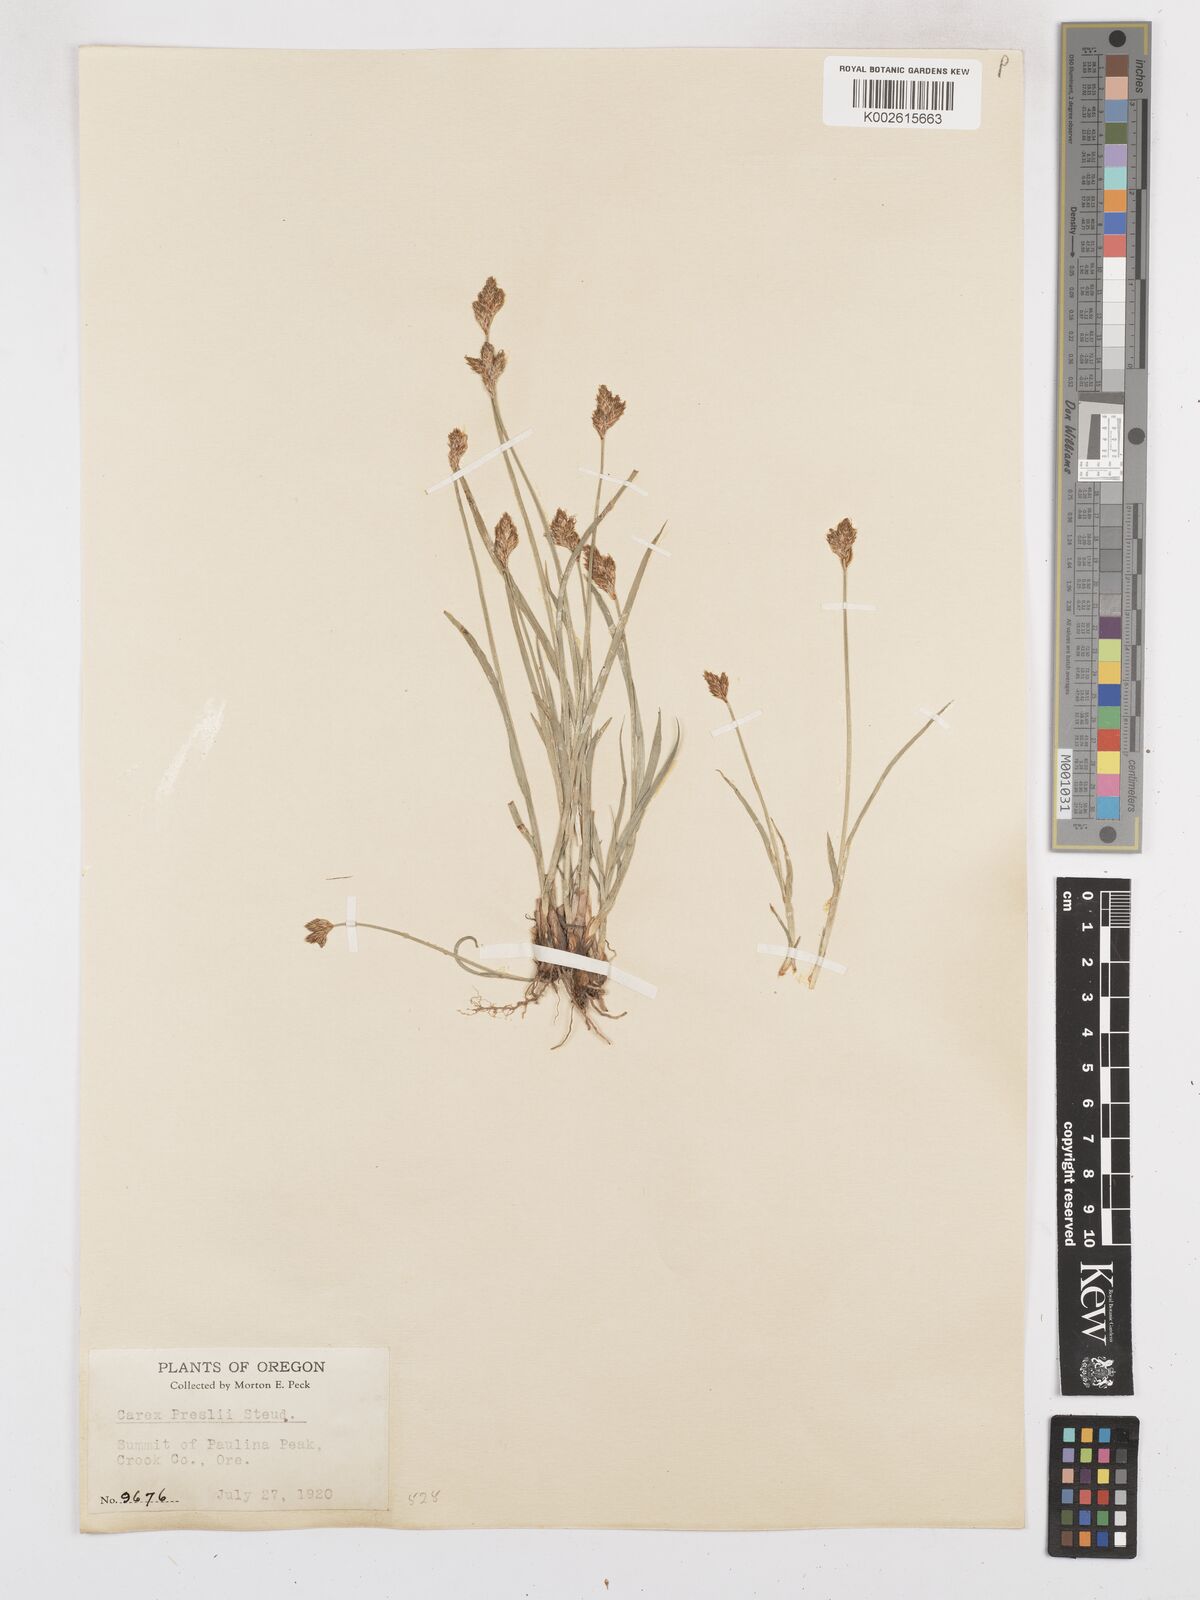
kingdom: Plantae
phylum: Tracheophyta
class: Liliopsida
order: Poales
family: Cyperaceae
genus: Carex
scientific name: Carex preslii
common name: Presl's sedge
